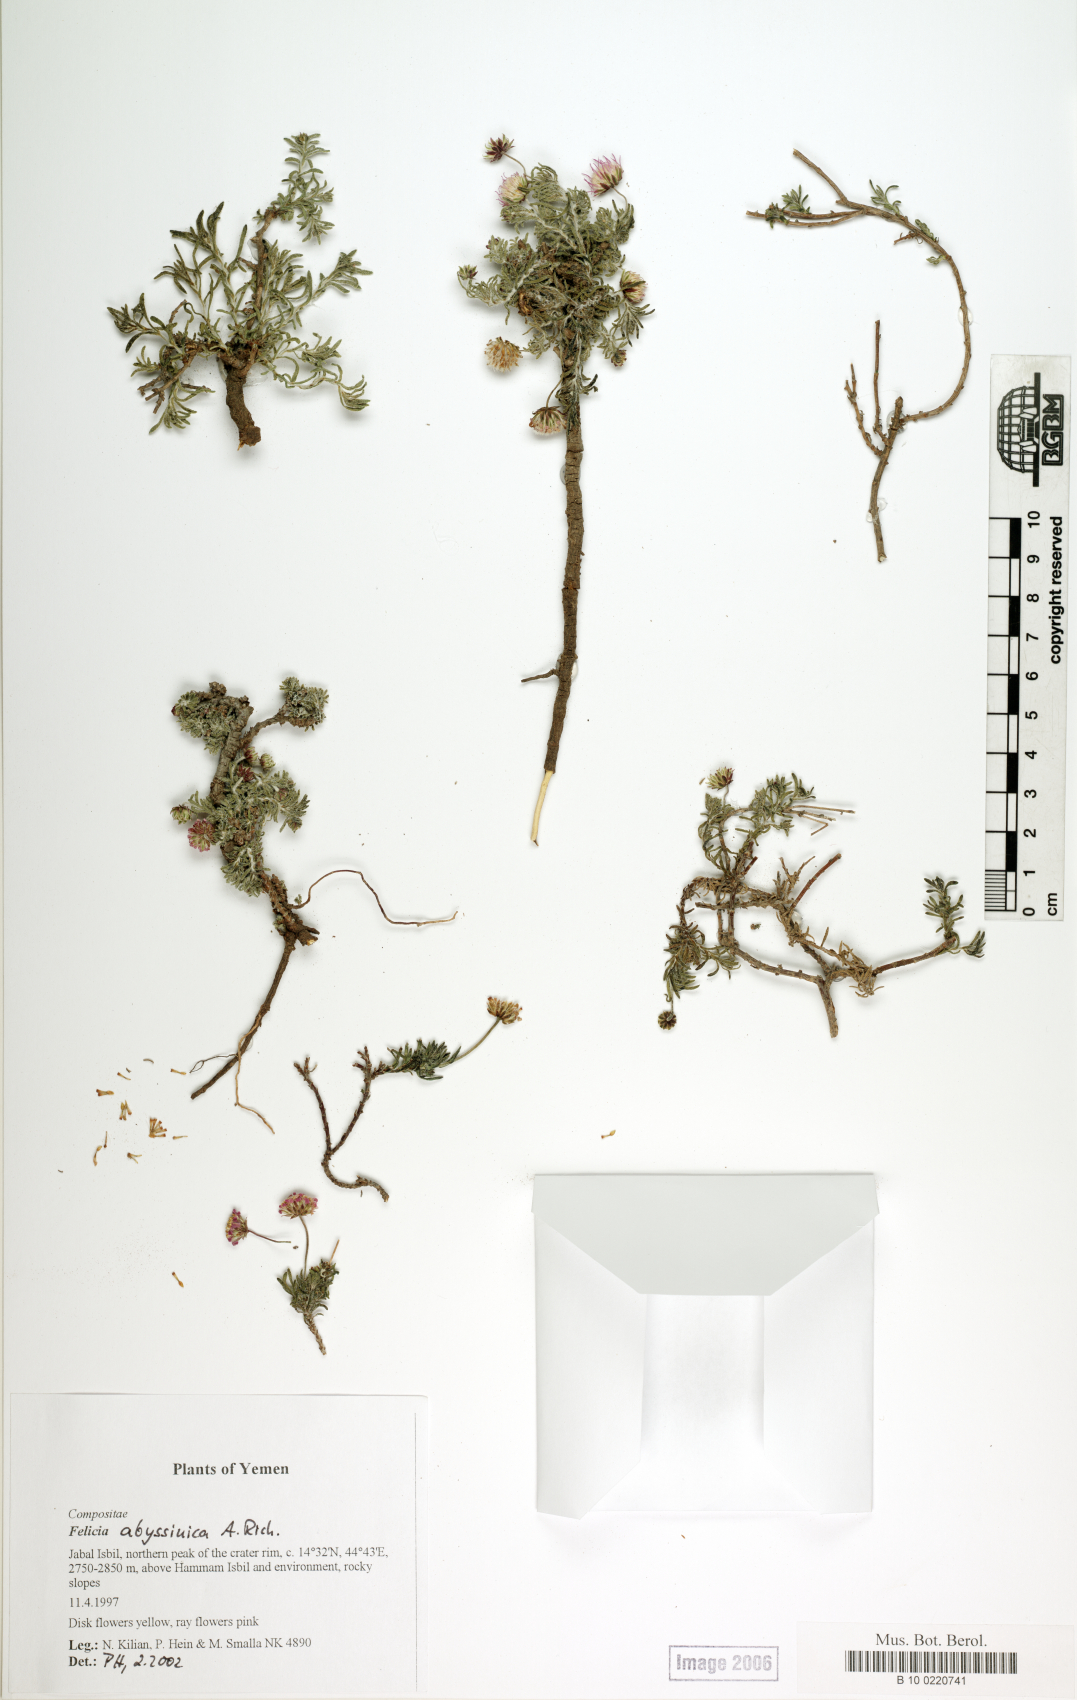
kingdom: Plantae
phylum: Tracheophyta
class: Magnoliopsida
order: Asterales
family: Asteraceae
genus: Felicia
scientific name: Felicia abyssinica
